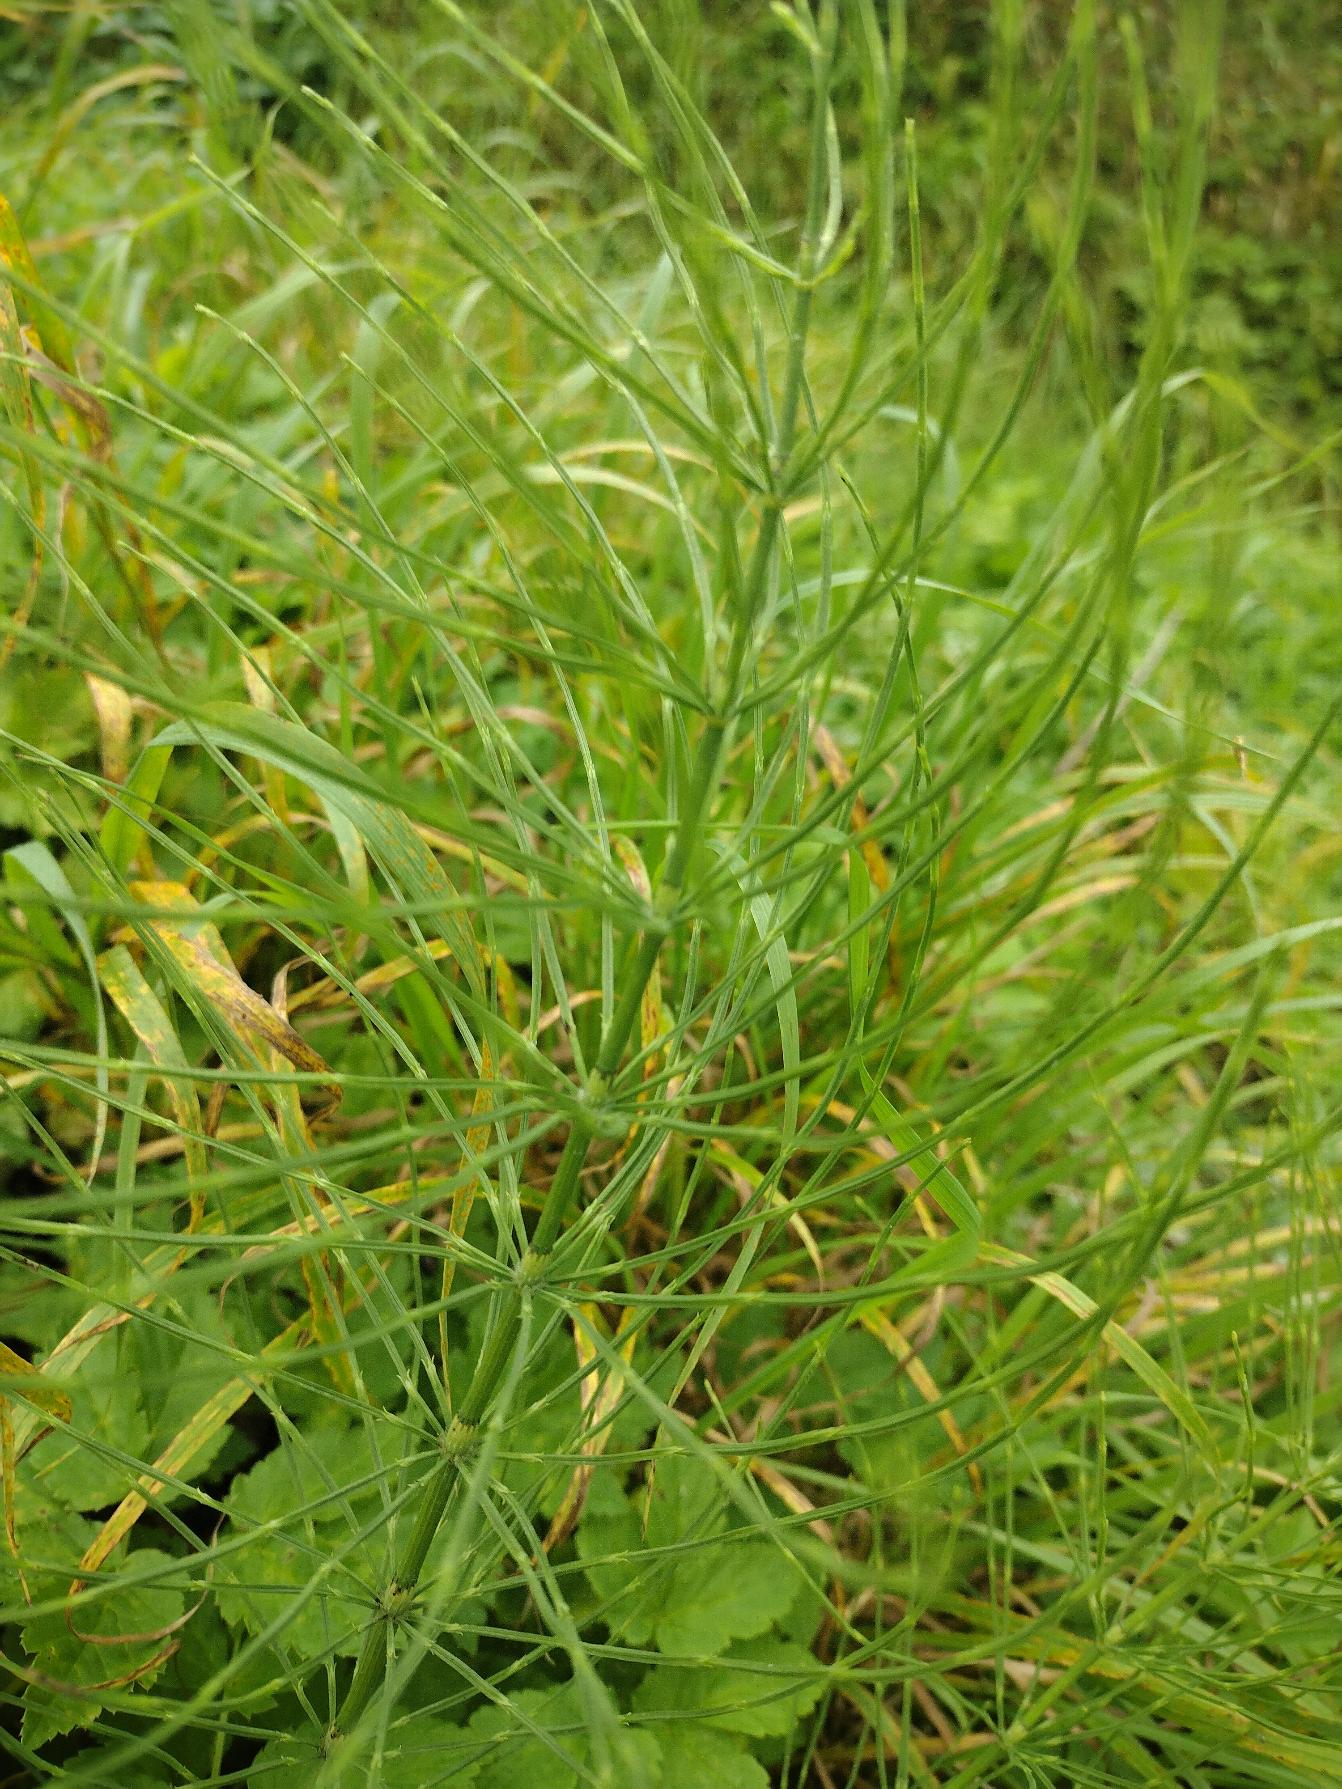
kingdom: Plantae
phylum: Tracheophyta
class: Polypodiopsida
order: Equisetales
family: Equisetaceae
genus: Equisetum
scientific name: Equisetum arvense
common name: Ager-padderok
